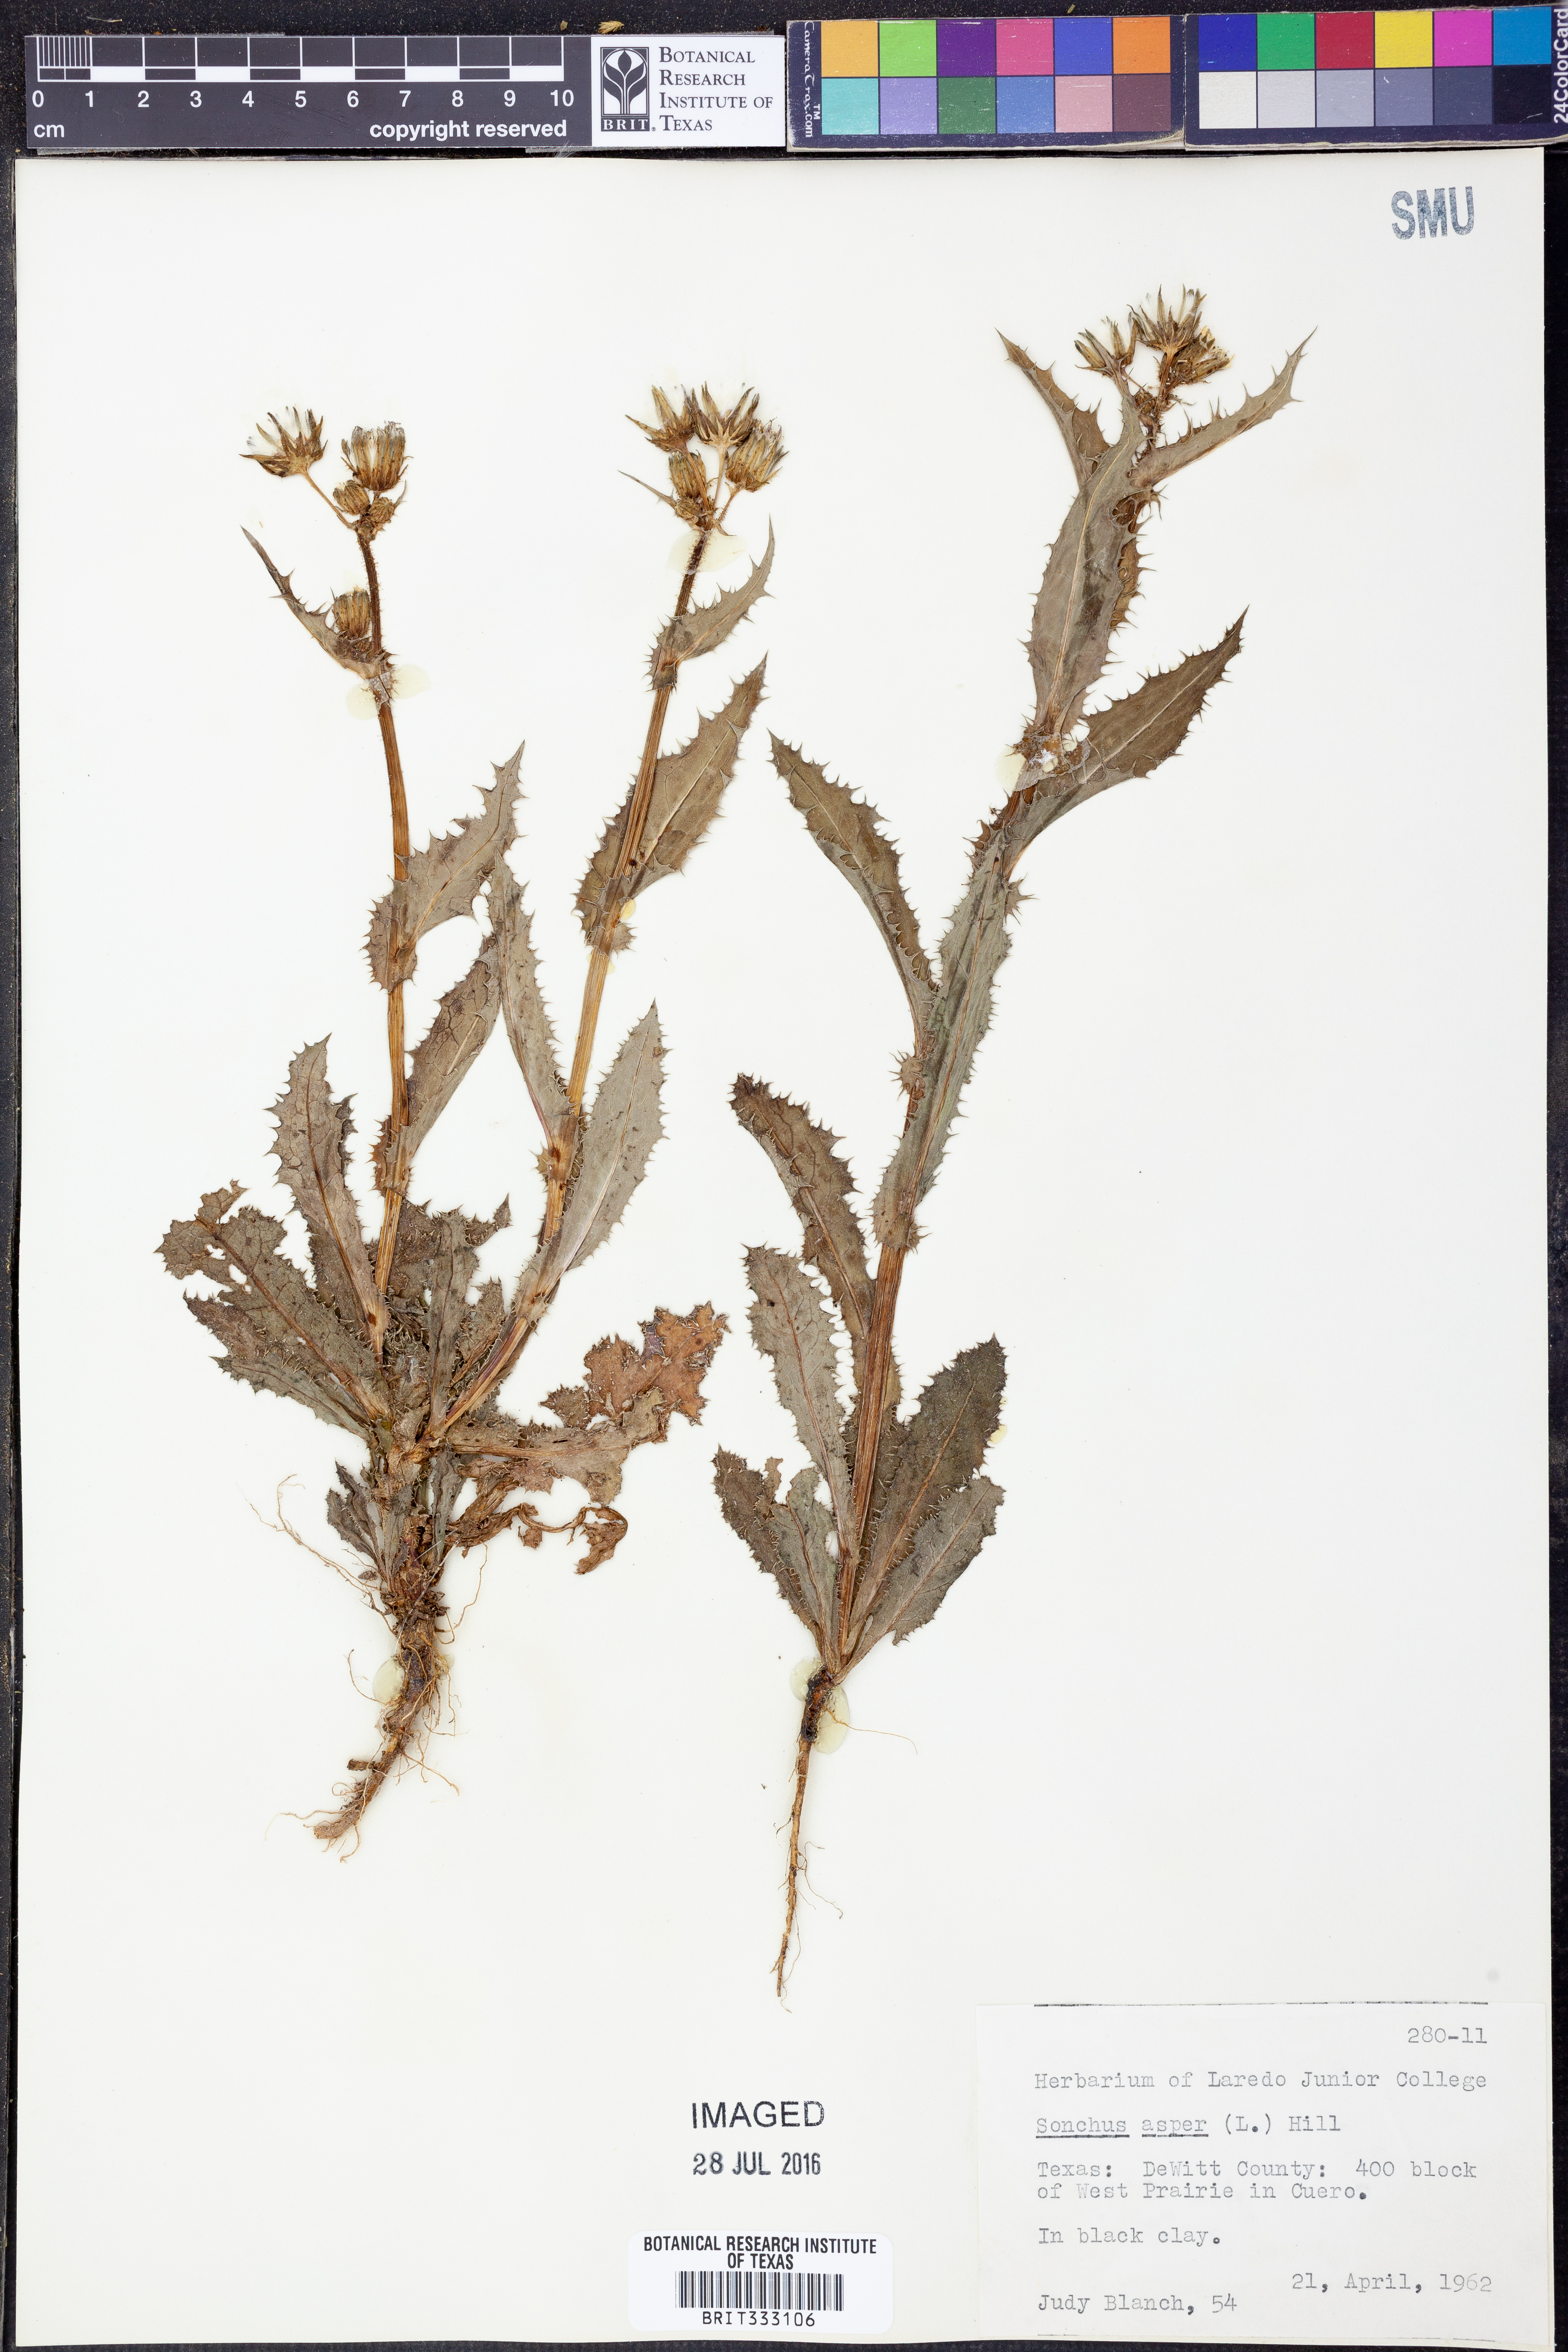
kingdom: Plantae
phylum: Tracheophyta
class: Magnoliopsida
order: Asterales
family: Asteraceae
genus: Sonchus
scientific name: Sonchus asper
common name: Prickly sow-thistle
